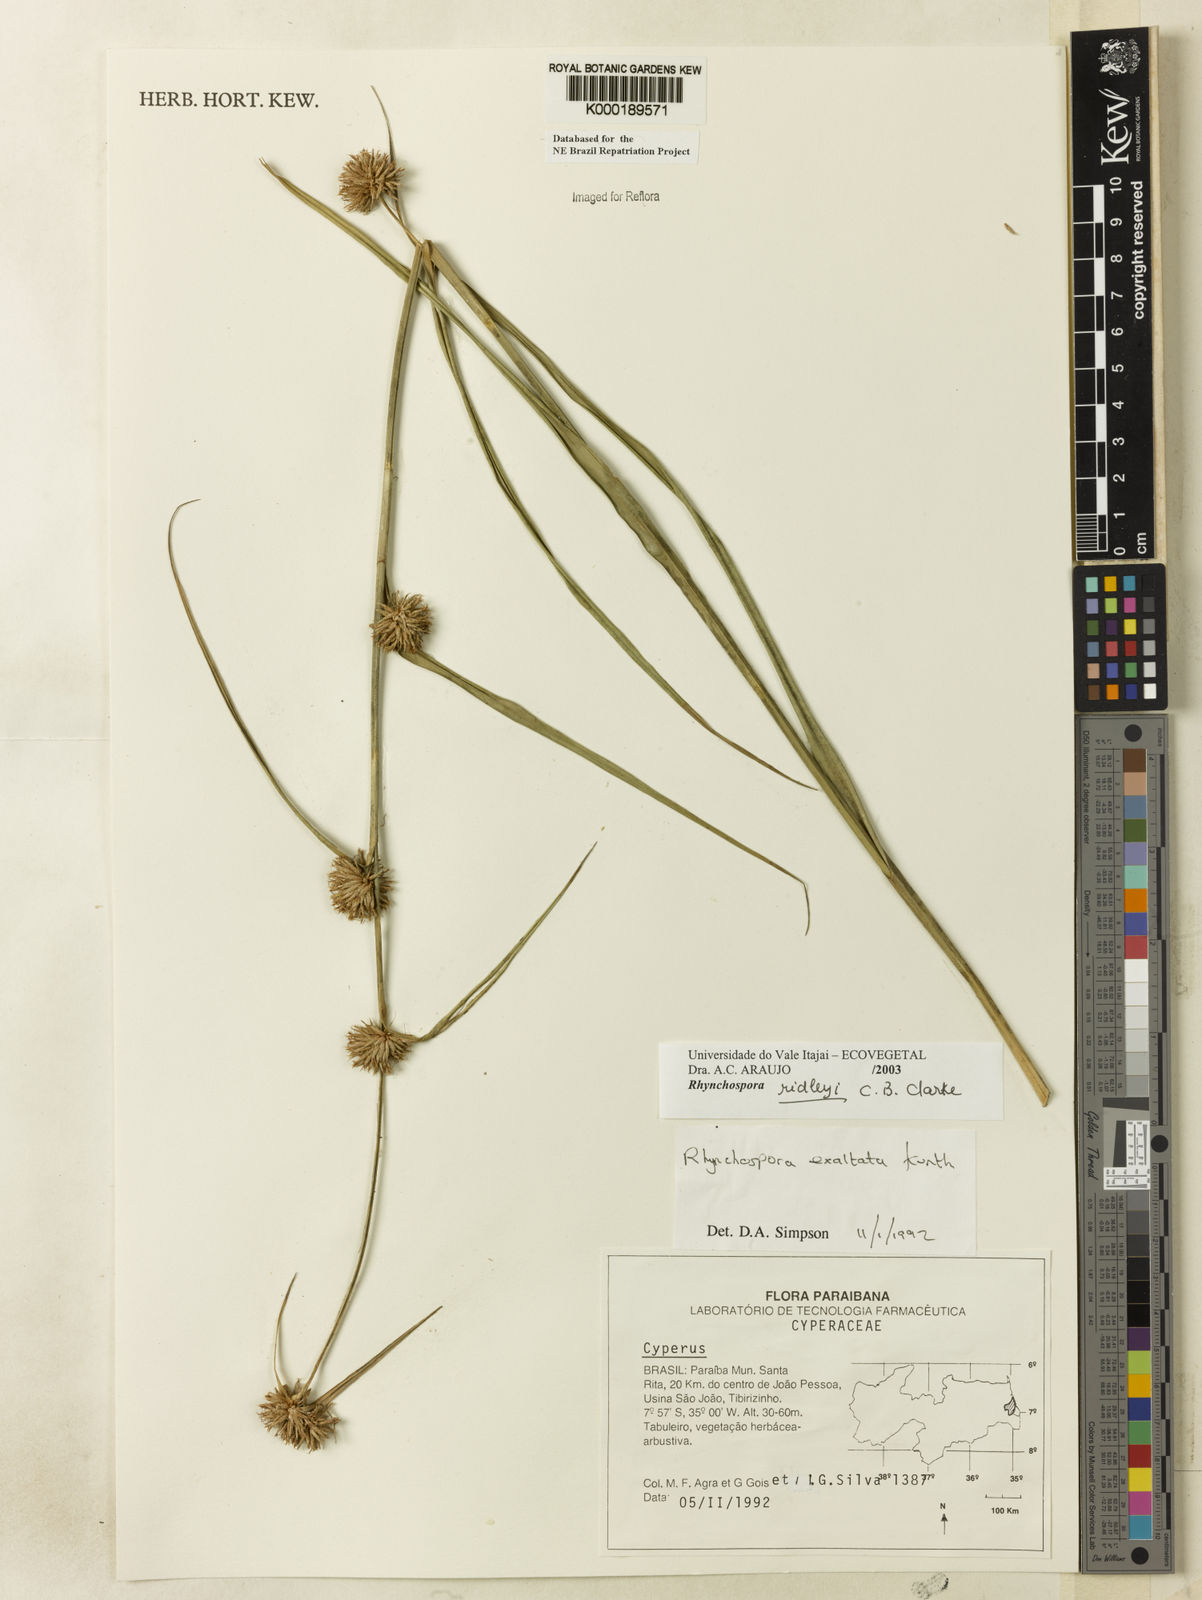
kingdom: Plantae
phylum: Tracheophyta
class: Liliopsida
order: Poales
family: Cyperaceae
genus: Rhynchospora
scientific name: Rhynchospora ridleyi
